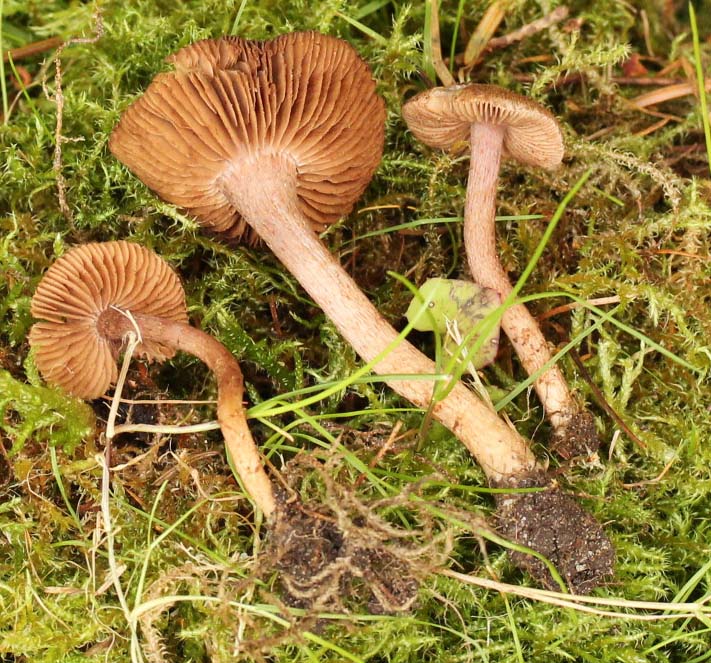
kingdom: Fungi
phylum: Basidiomycota
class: Agaricomycetes
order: Agaricales
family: Inocybaceae
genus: Inocybe
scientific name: Inocybe cincinnata
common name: lillabladet trævlhat
